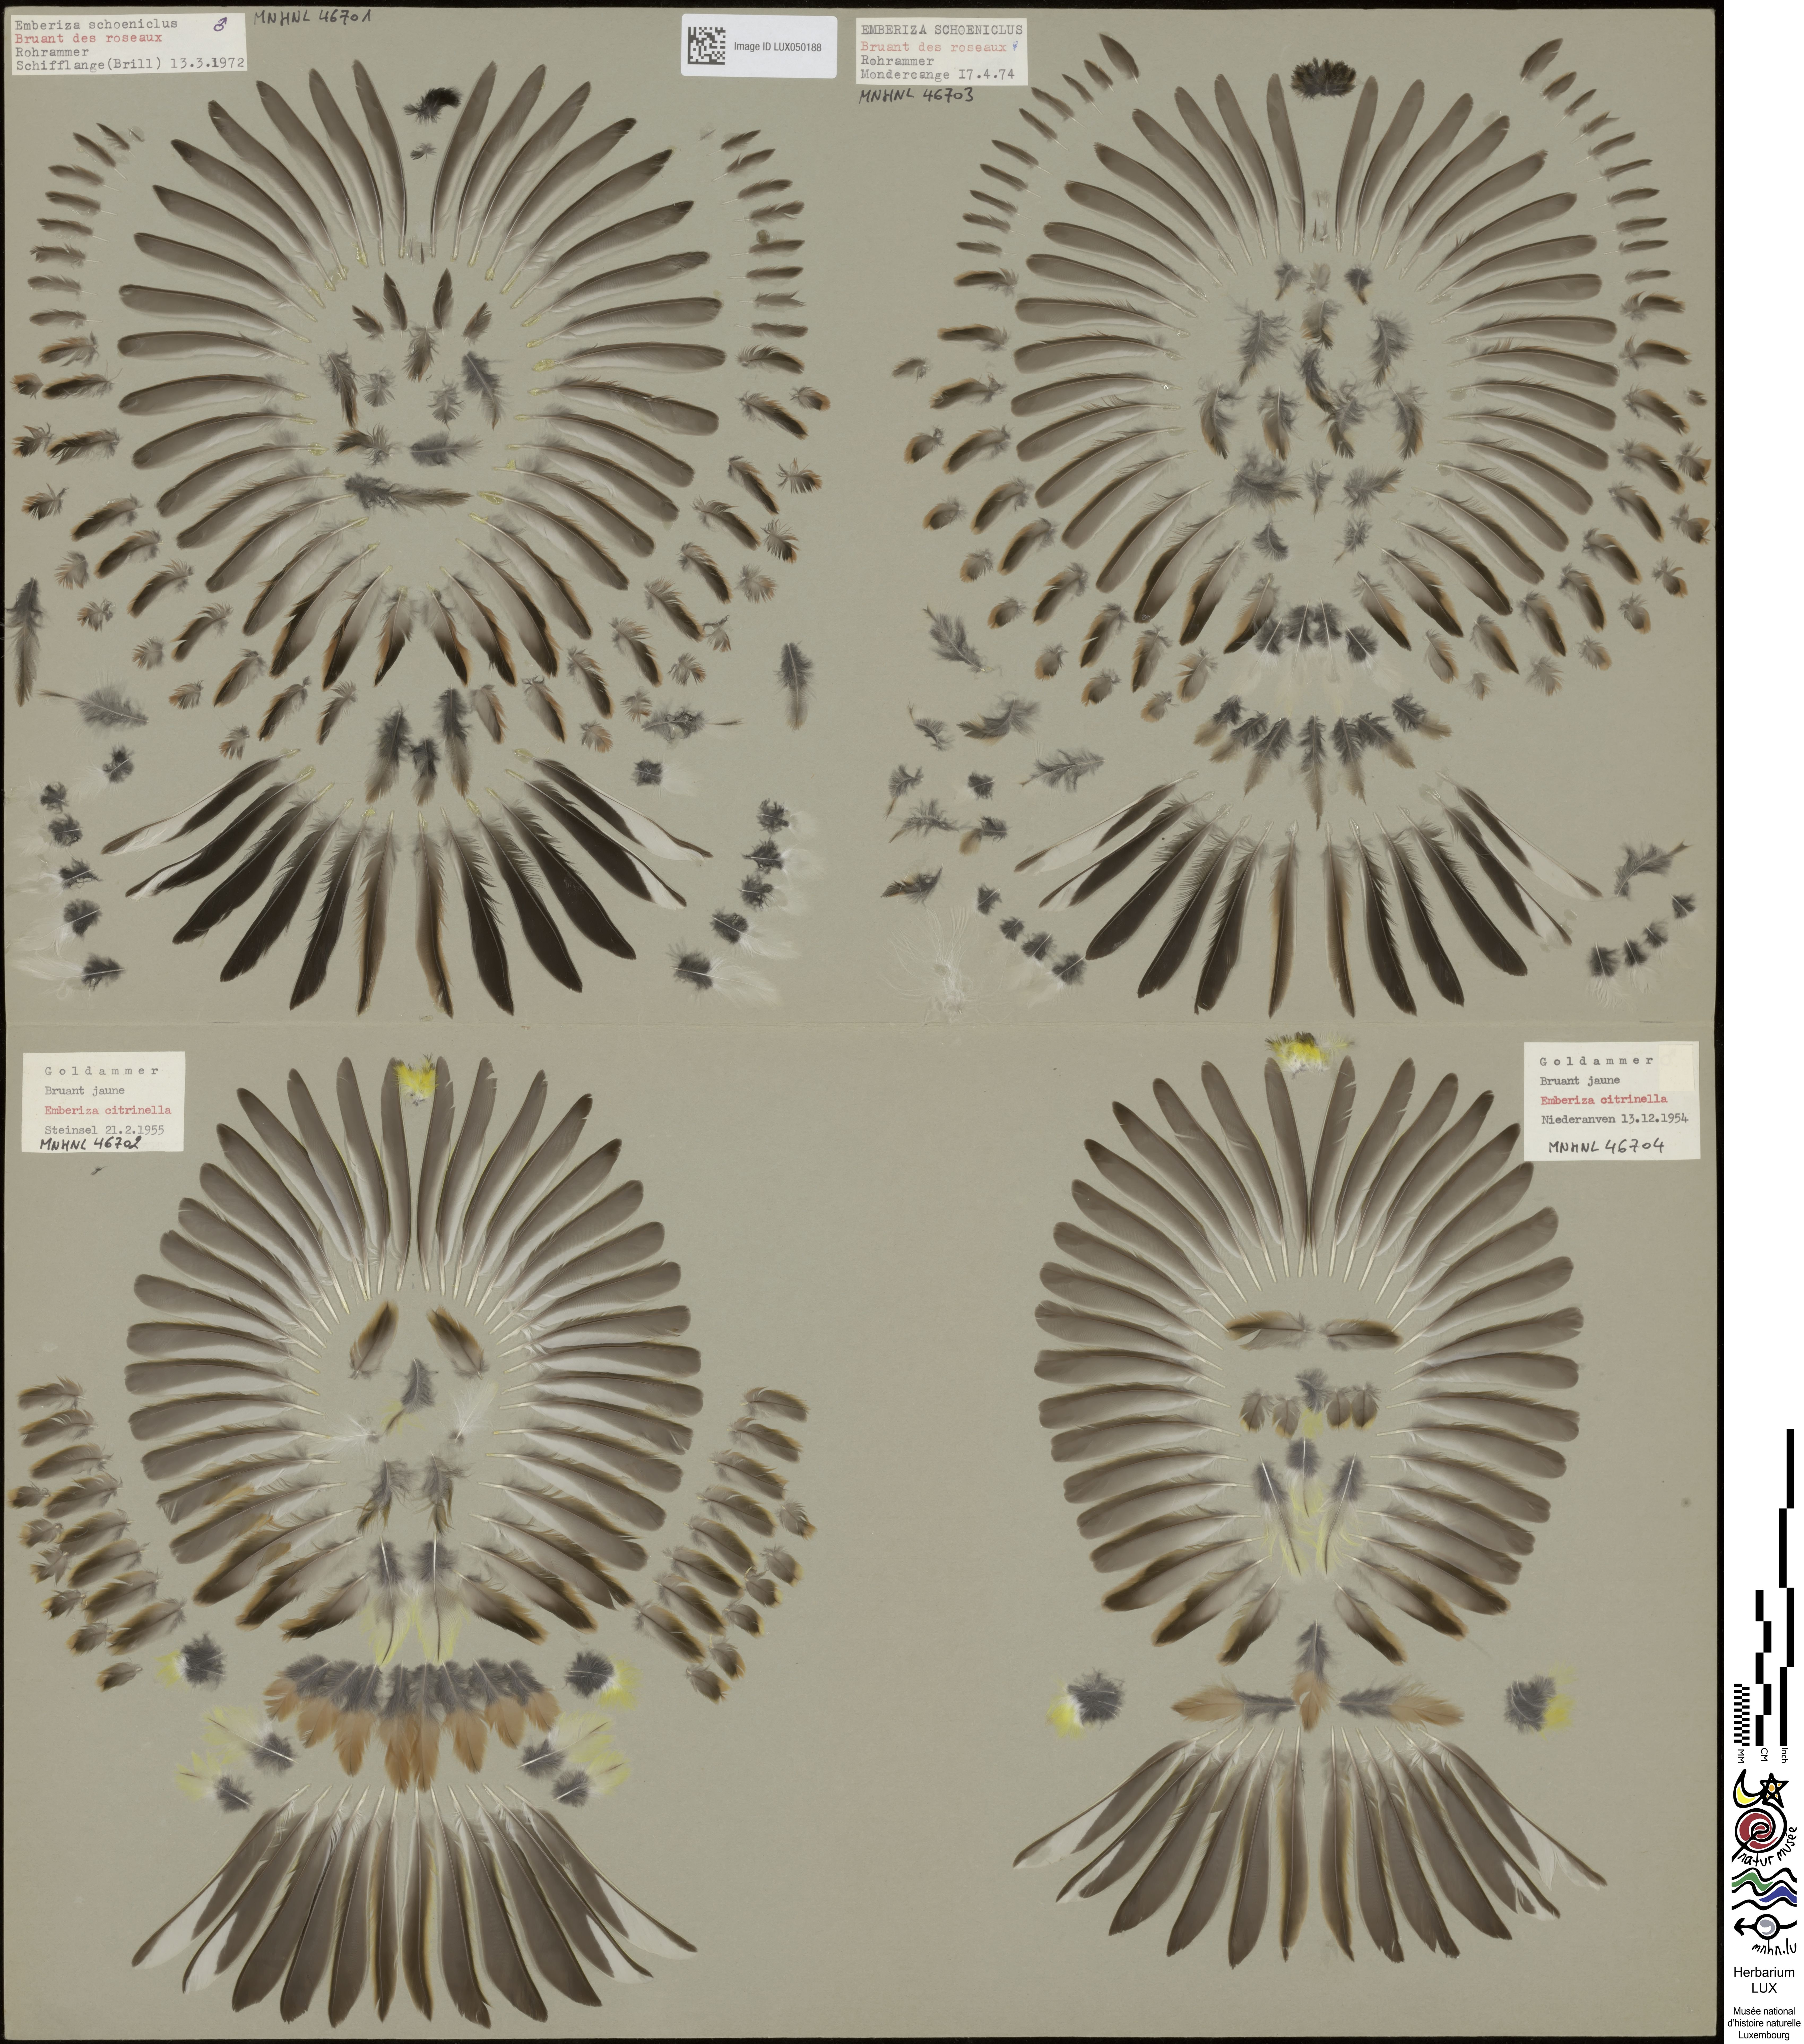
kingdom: Animalia
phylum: Chordata
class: Aves
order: Passeriformes
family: Emberizidae
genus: Emberiza
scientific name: Emberiza citrinella
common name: Yellowhammer
